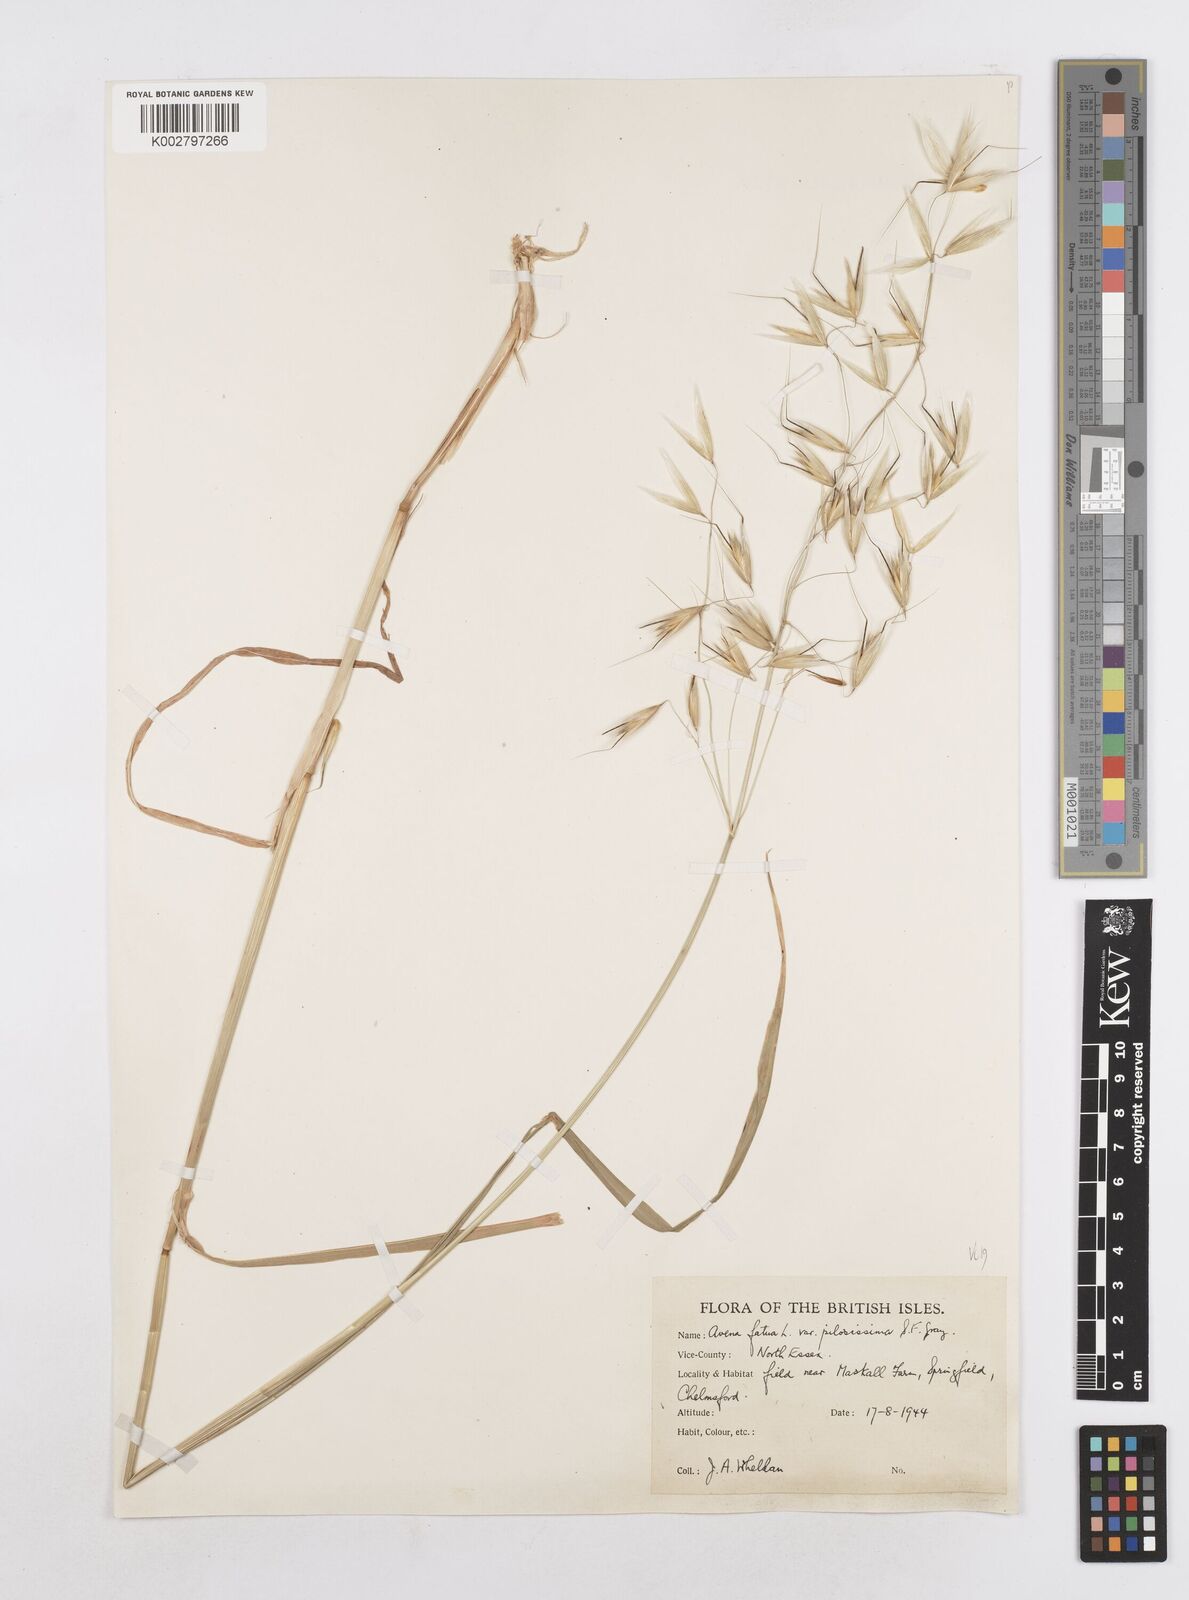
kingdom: Plantae
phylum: Tracheophyta
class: Liliopsida
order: Poales
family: Poaceae
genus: Avena
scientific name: Avena fatua
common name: Wild oat
